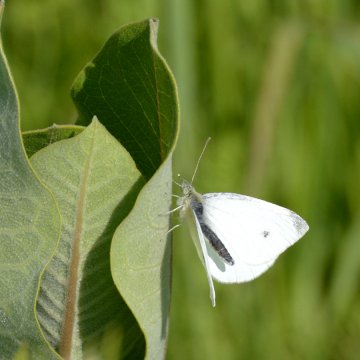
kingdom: Animalia
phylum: Arthropoda
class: Insecta
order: Lepidoptera
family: Pieridae
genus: Pieris
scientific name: Pieris rapae
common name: Cabbage White
